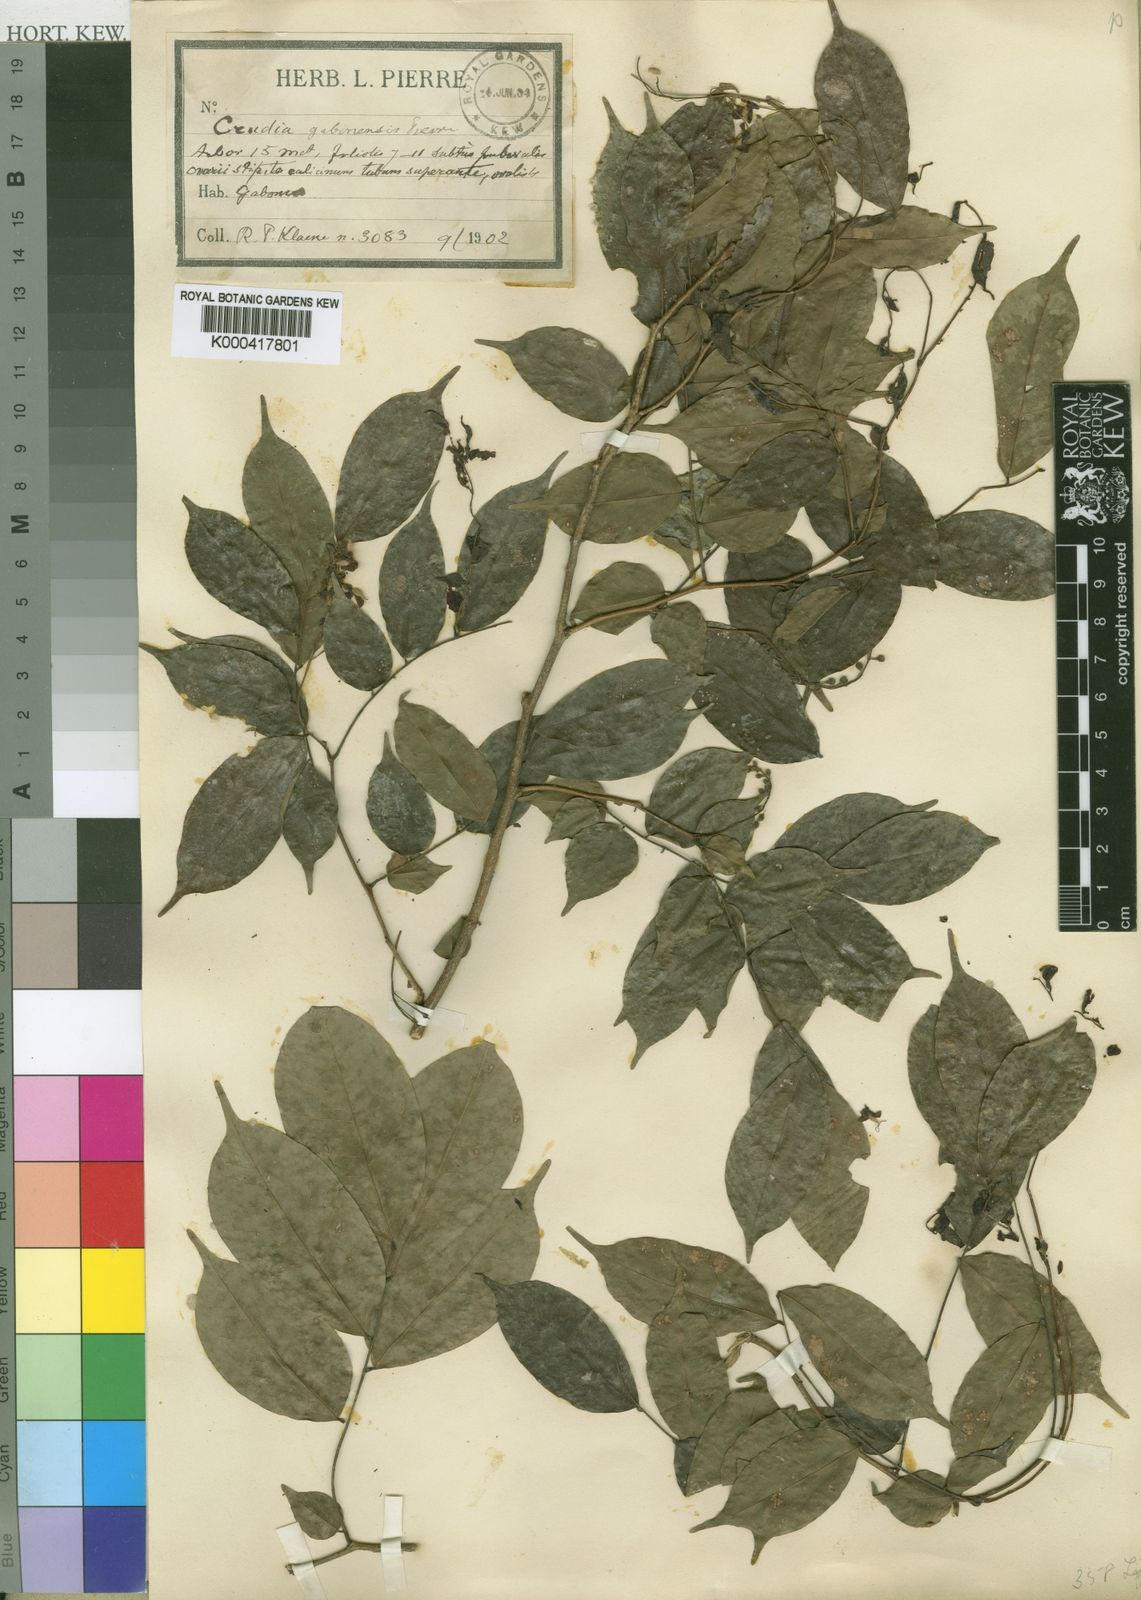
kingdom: Plantae
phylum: Tracheophyta
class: Magnoliopsida
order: Fabales
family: Fabaceae
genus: Crudia
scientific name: Crudia
